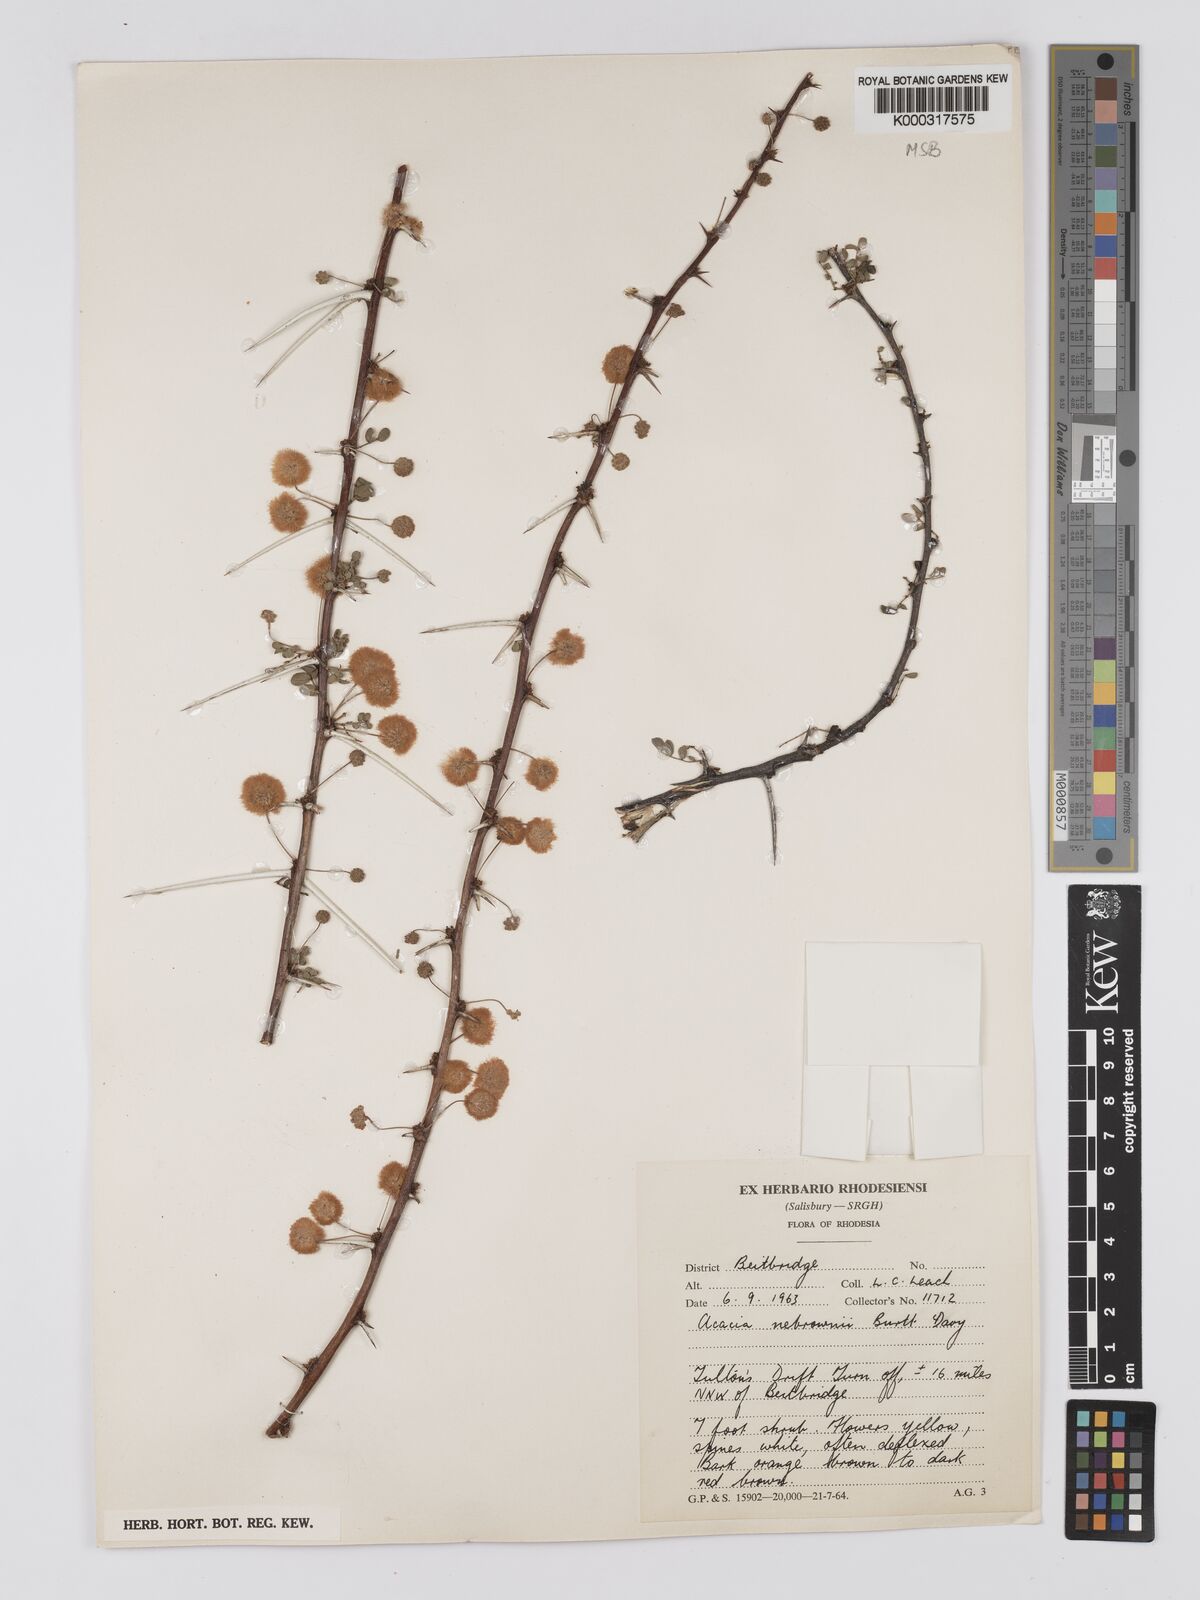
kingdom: Plantae
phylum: Tracheophyta
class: Magnoliopsida
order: Fabales
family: Fabaceae
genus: Vachellia
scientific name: Vachellia nebrownii
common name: Water acacia
